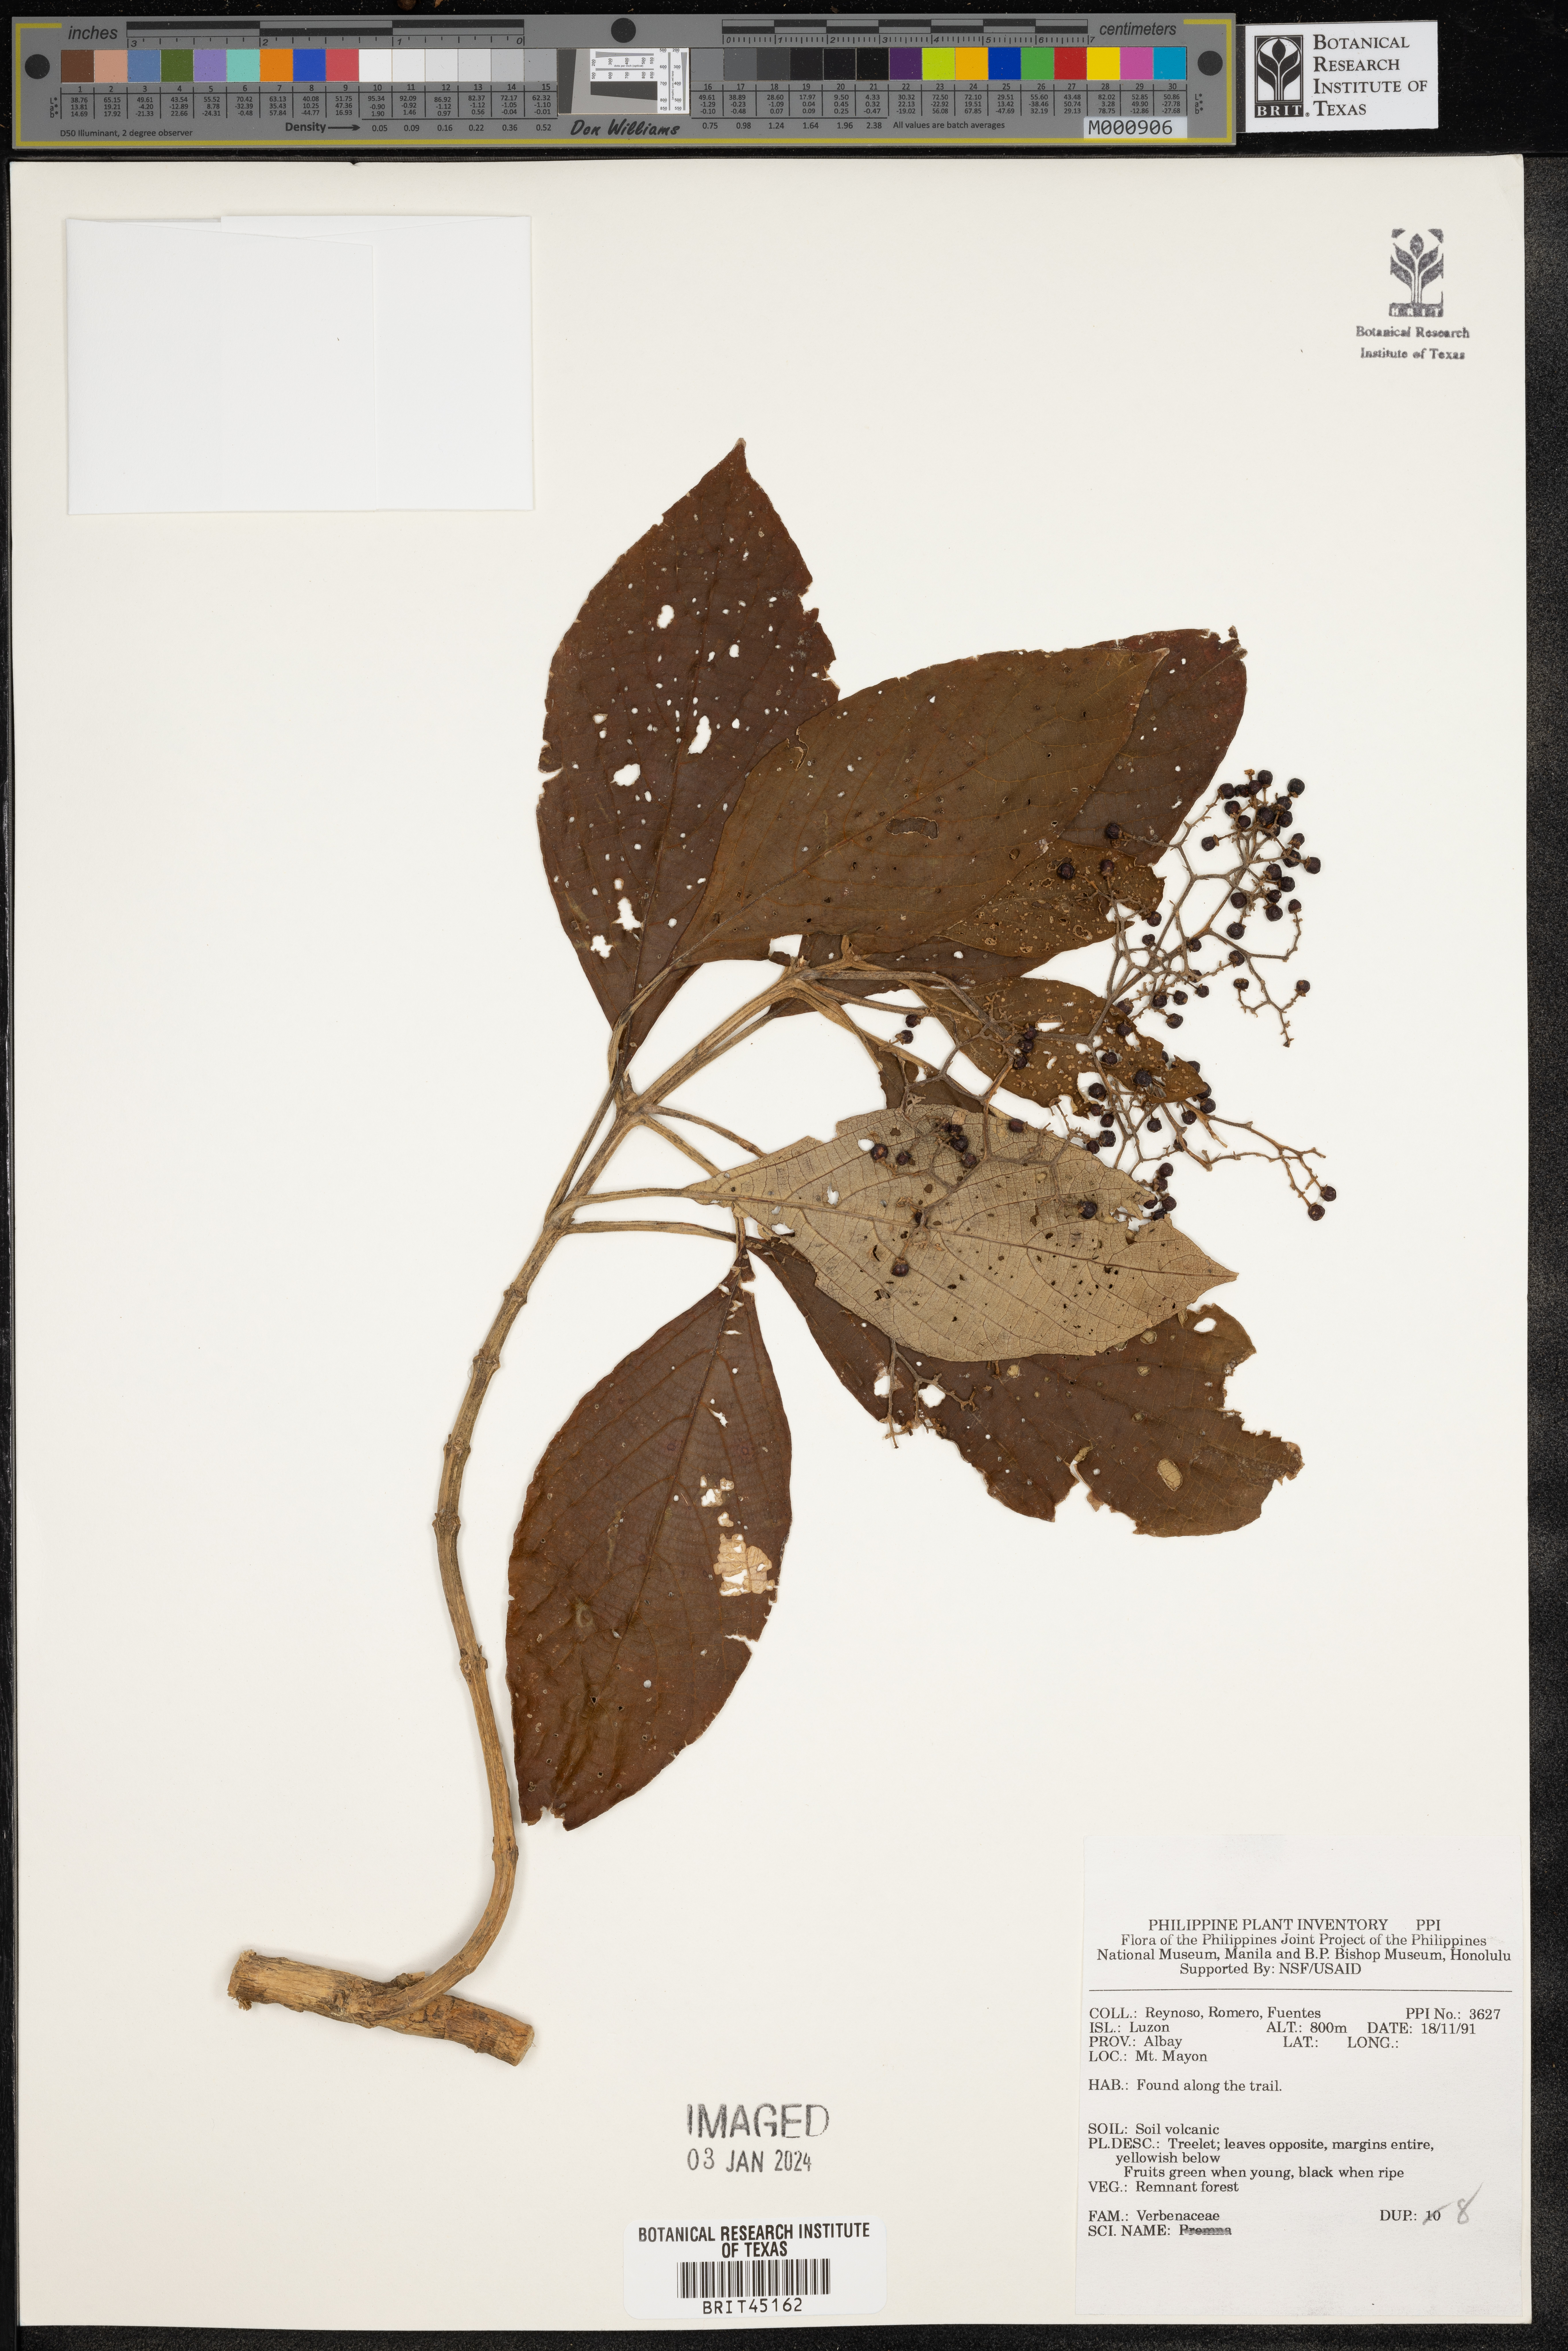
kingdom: Plantae
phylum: Tracheophyta
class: Magnoliopsida
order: Lamiales
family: Verbenaceae
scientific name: Verbenaceae
